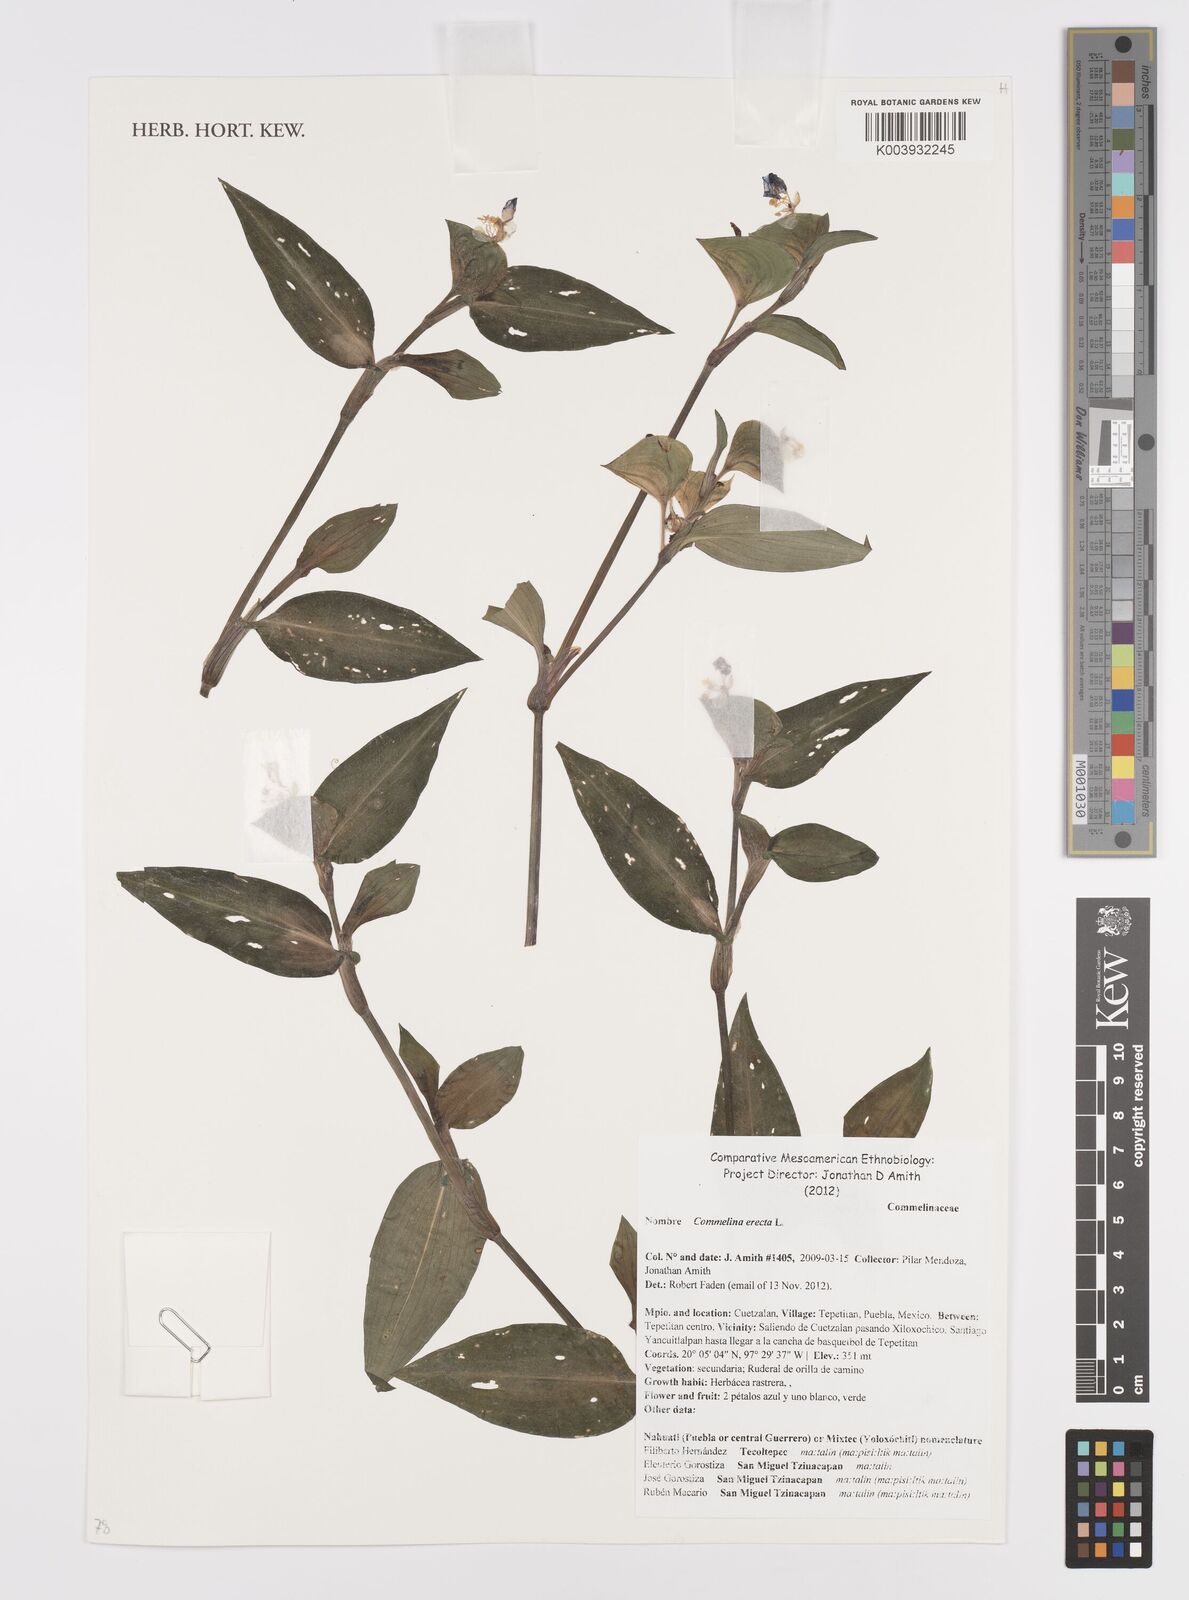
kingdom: Plantae
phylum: Tracheophyta
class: Liliopsida
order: Commelinales
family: Commelinaceae
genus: Commelina
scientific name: Commelina erecta
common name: Blousel blommetjie
